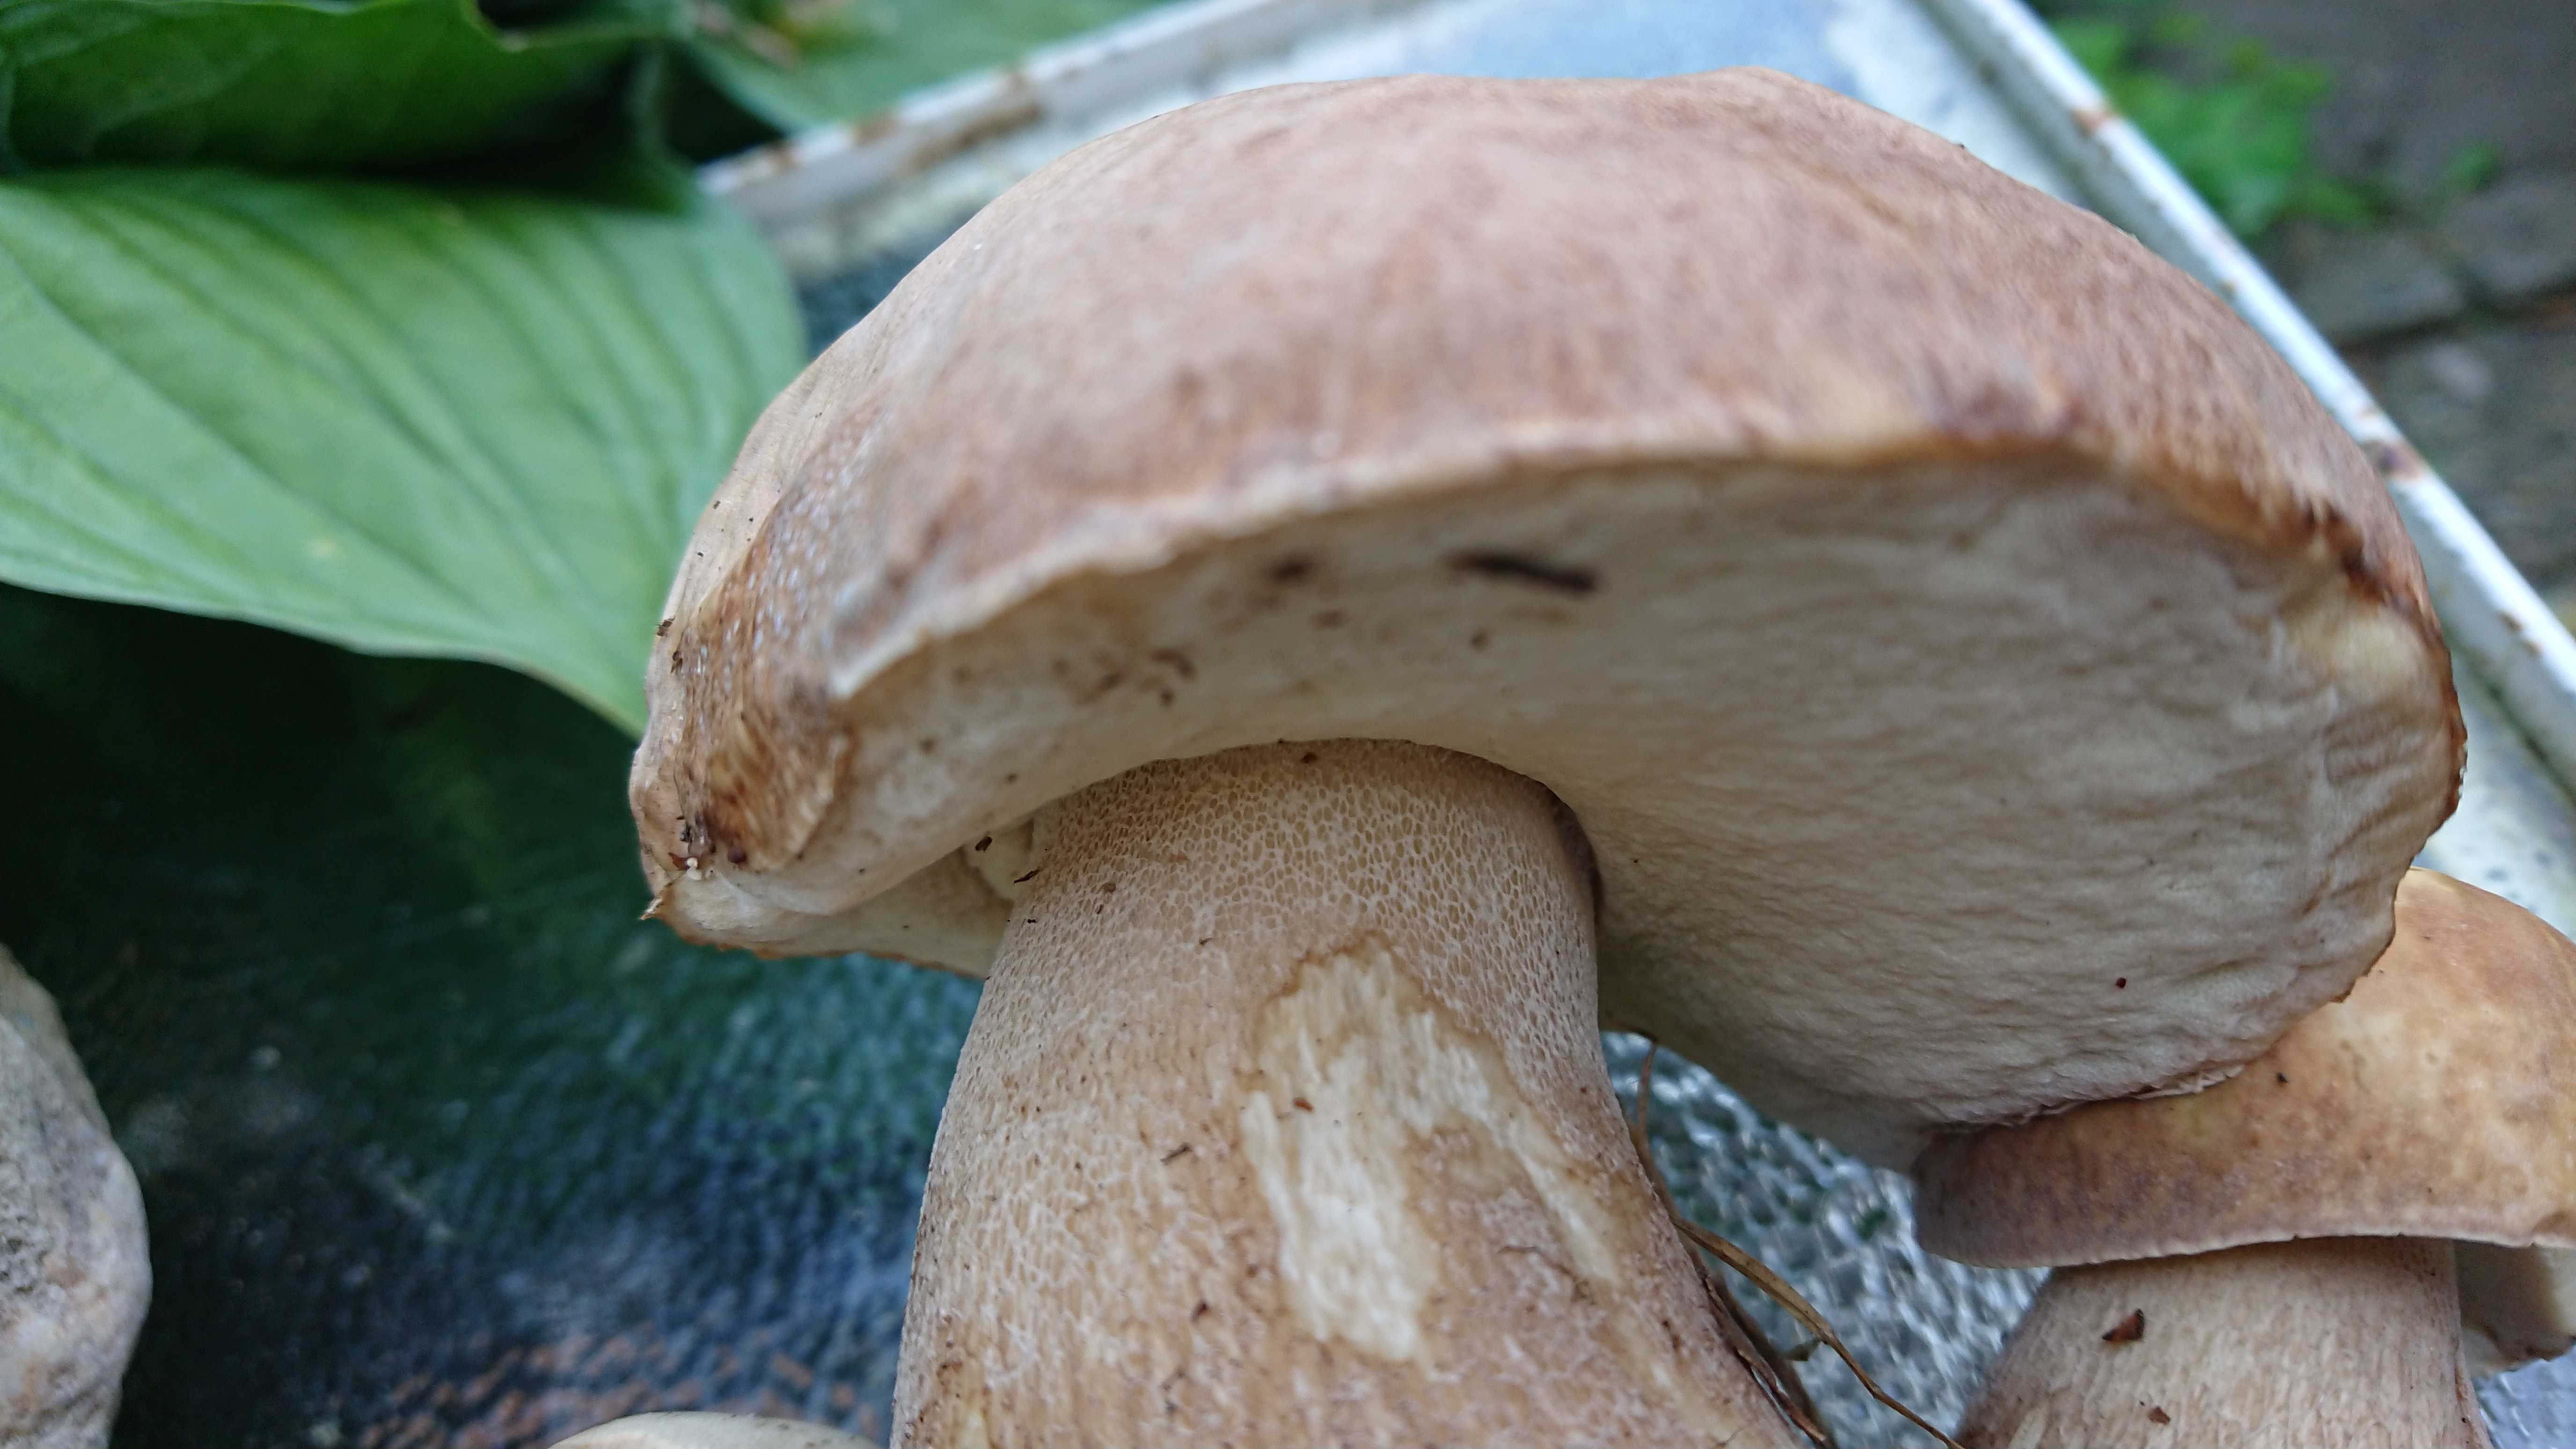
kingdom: Fungi
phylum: Basidiomycota
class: Agaricomycetes
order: Boletales
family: Boletaceae
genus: Boletus
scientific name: Boletus reticulatus
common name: sommer-rørhat
